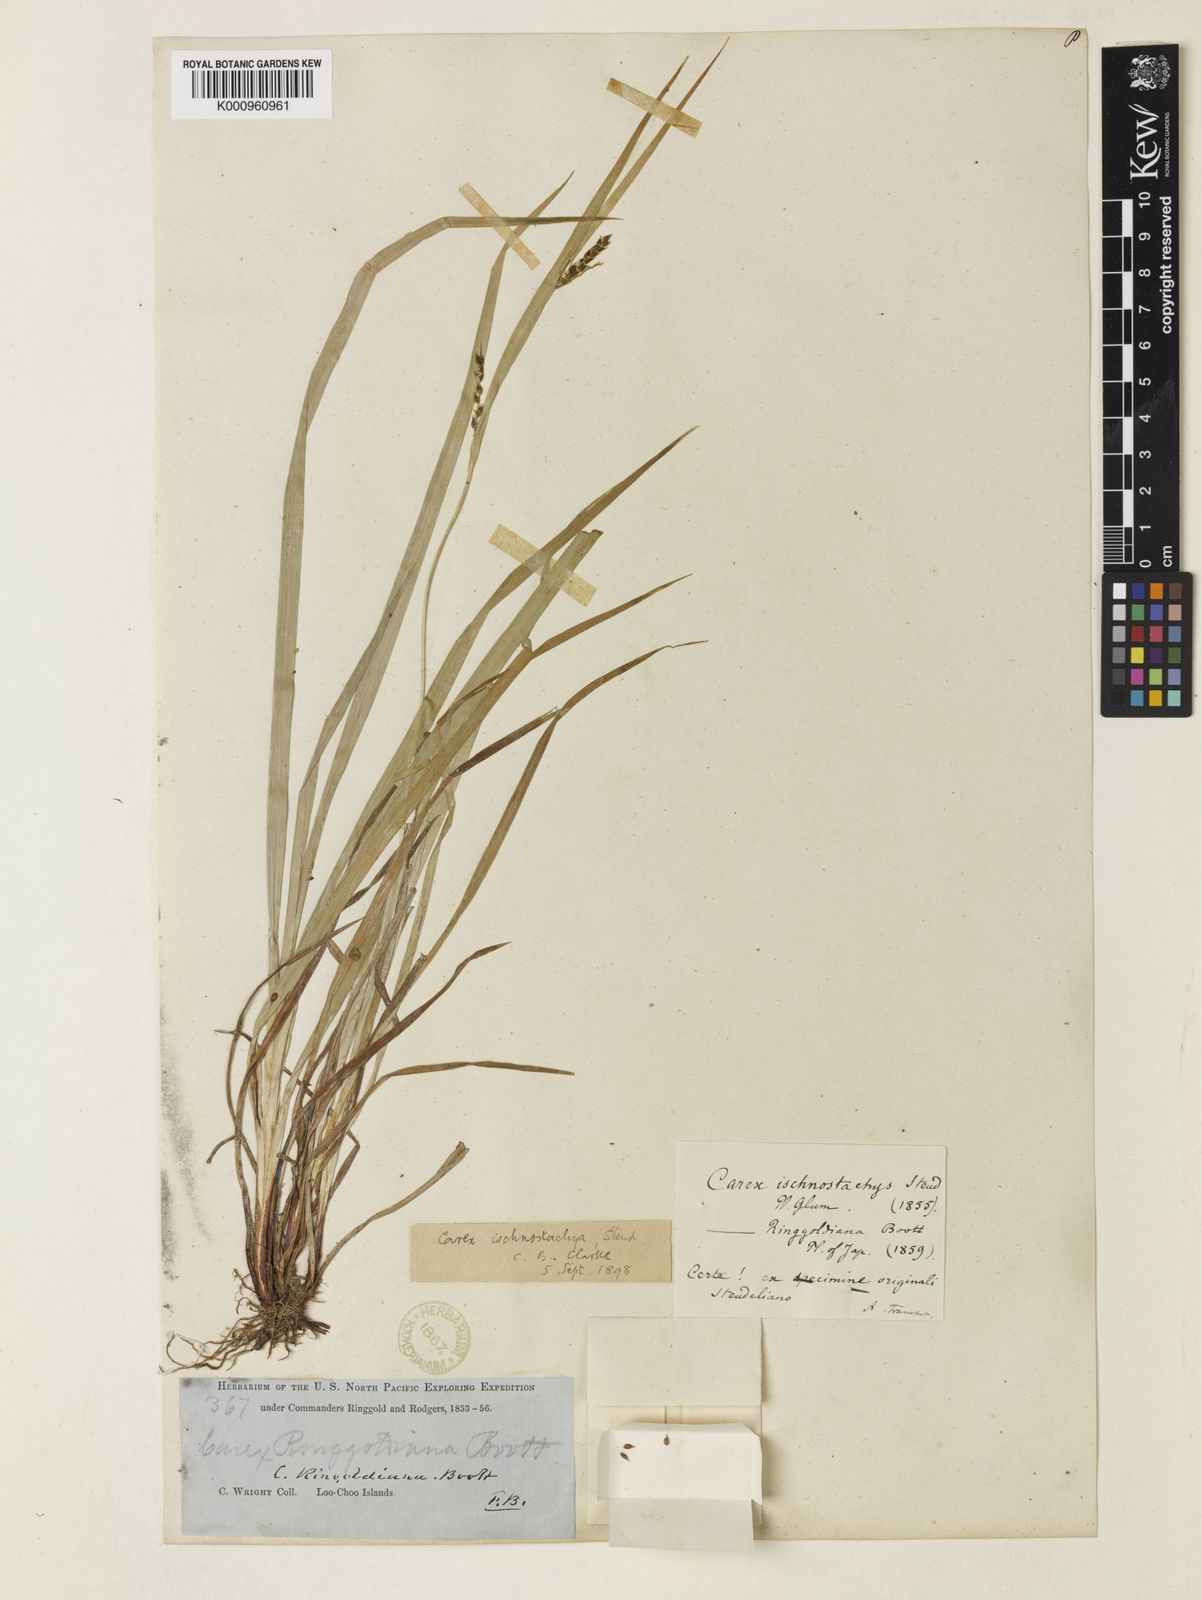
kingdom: Plantae
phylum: Tracheophyta
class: Liliopsida
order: Poales
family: Cyperaceae
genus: Carex
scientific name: Carex ischnostachya
